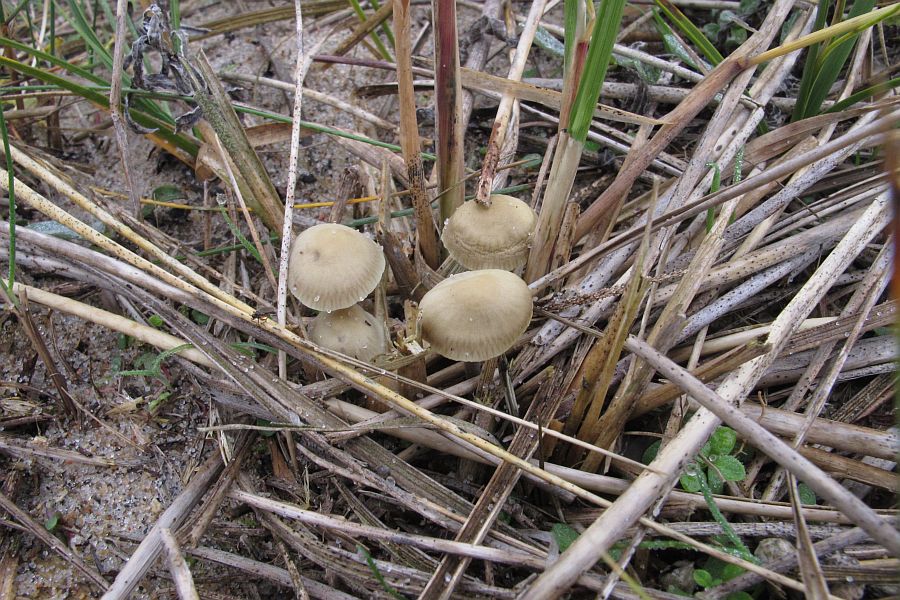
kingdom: Fungi
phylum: Basidiomycota
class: Agaricomycetes
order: Agaricales
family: Mycenaceae
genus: Mycena
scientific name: Mycena chlorantha
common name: klit-huesvamp
